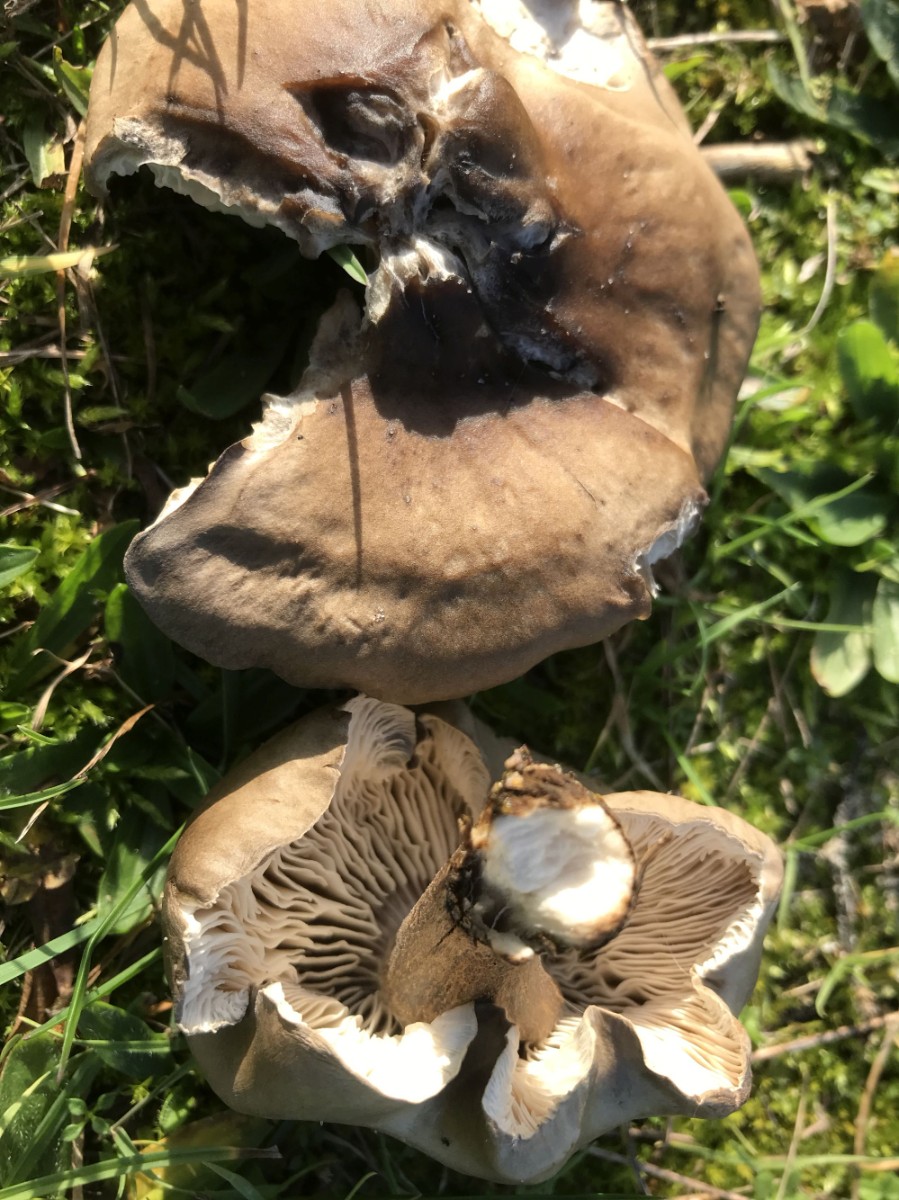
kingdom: Fungi
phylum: Basidiomycota
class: Agaricomycetes
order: Agaricales
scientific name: Agaricales
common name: champignonordenen
